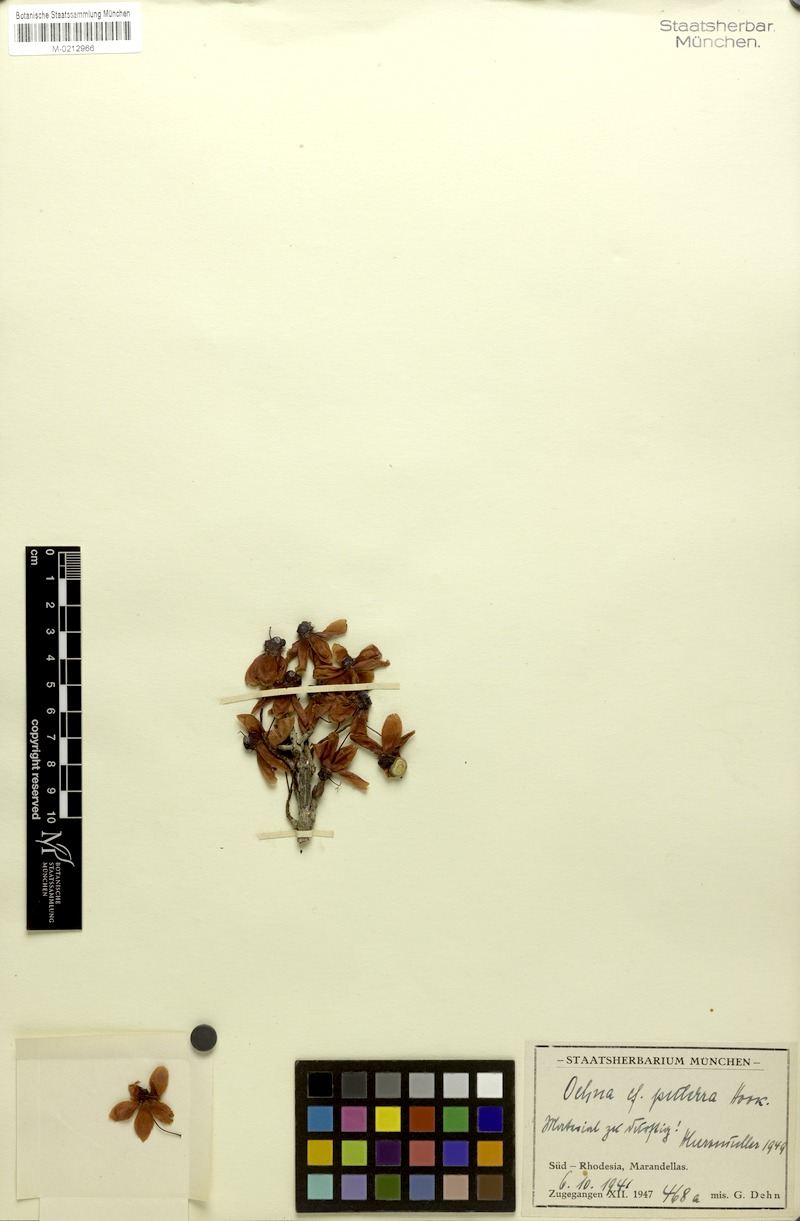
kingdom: Plantae
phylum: Tracheophyta
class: Magnoliopsida
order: Malpighiales
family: Ochnaceae
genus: Ochna
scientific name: Ochna pulchra
